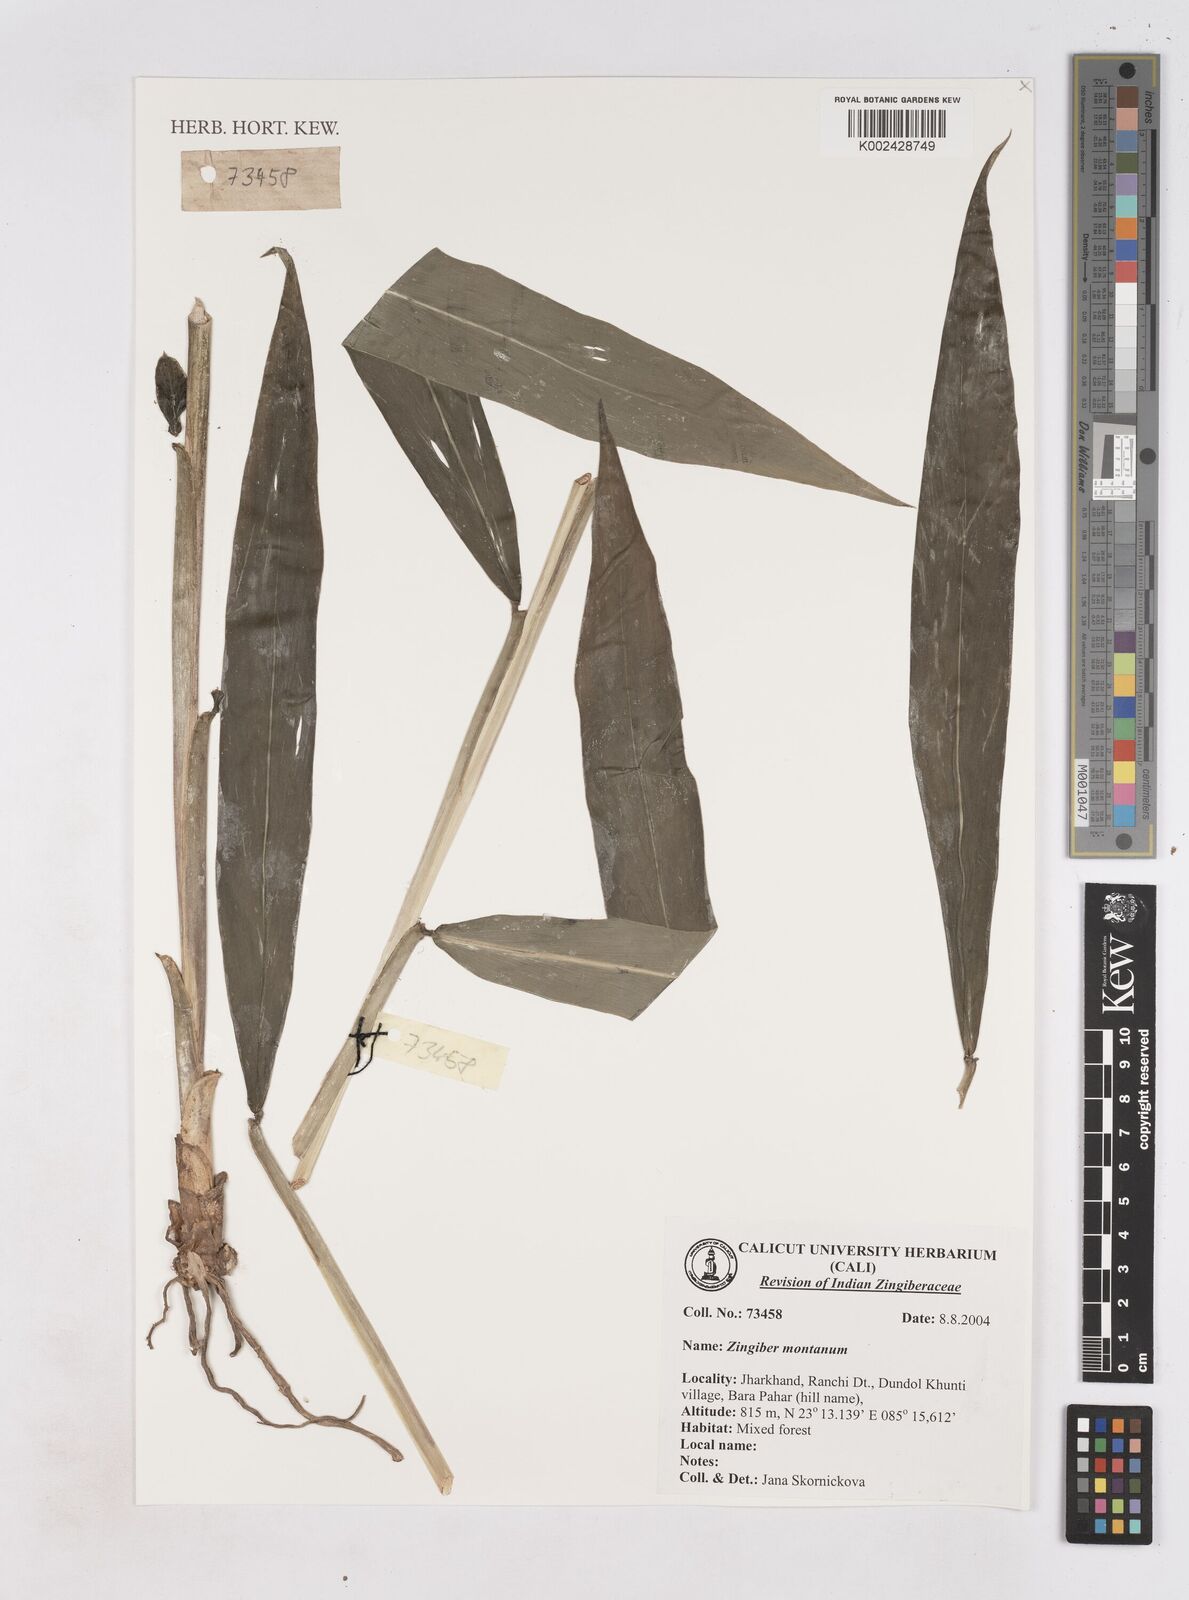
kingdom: Plantae
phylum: Tracheophyta
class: Liliopsida
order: Zingiberales
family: Zingiberaceae
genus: Zingiber
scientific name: Zingiber montanum
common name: Bengal ginger
